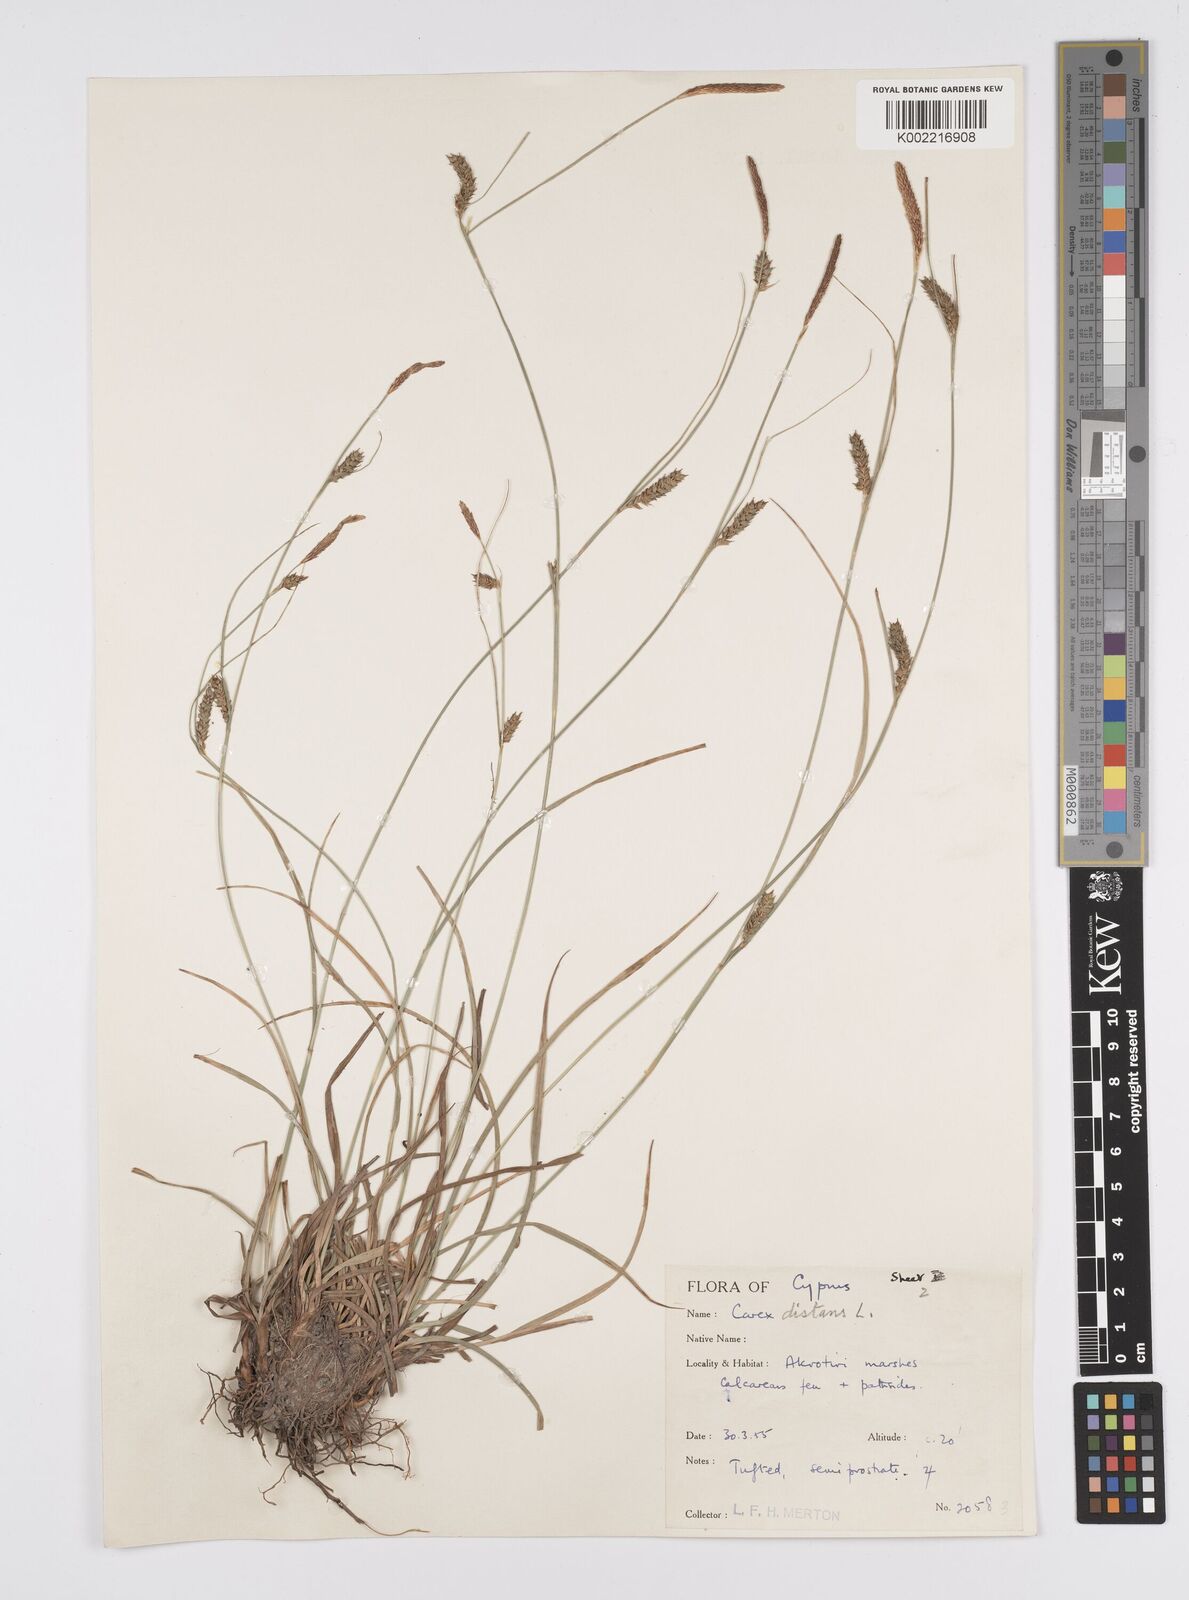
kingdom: Plantae
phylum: Tracheophyta
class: Liliopsida
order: Poales
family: Cyperaceae
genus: Carex
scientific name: Carex distans
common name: Distant sedge
